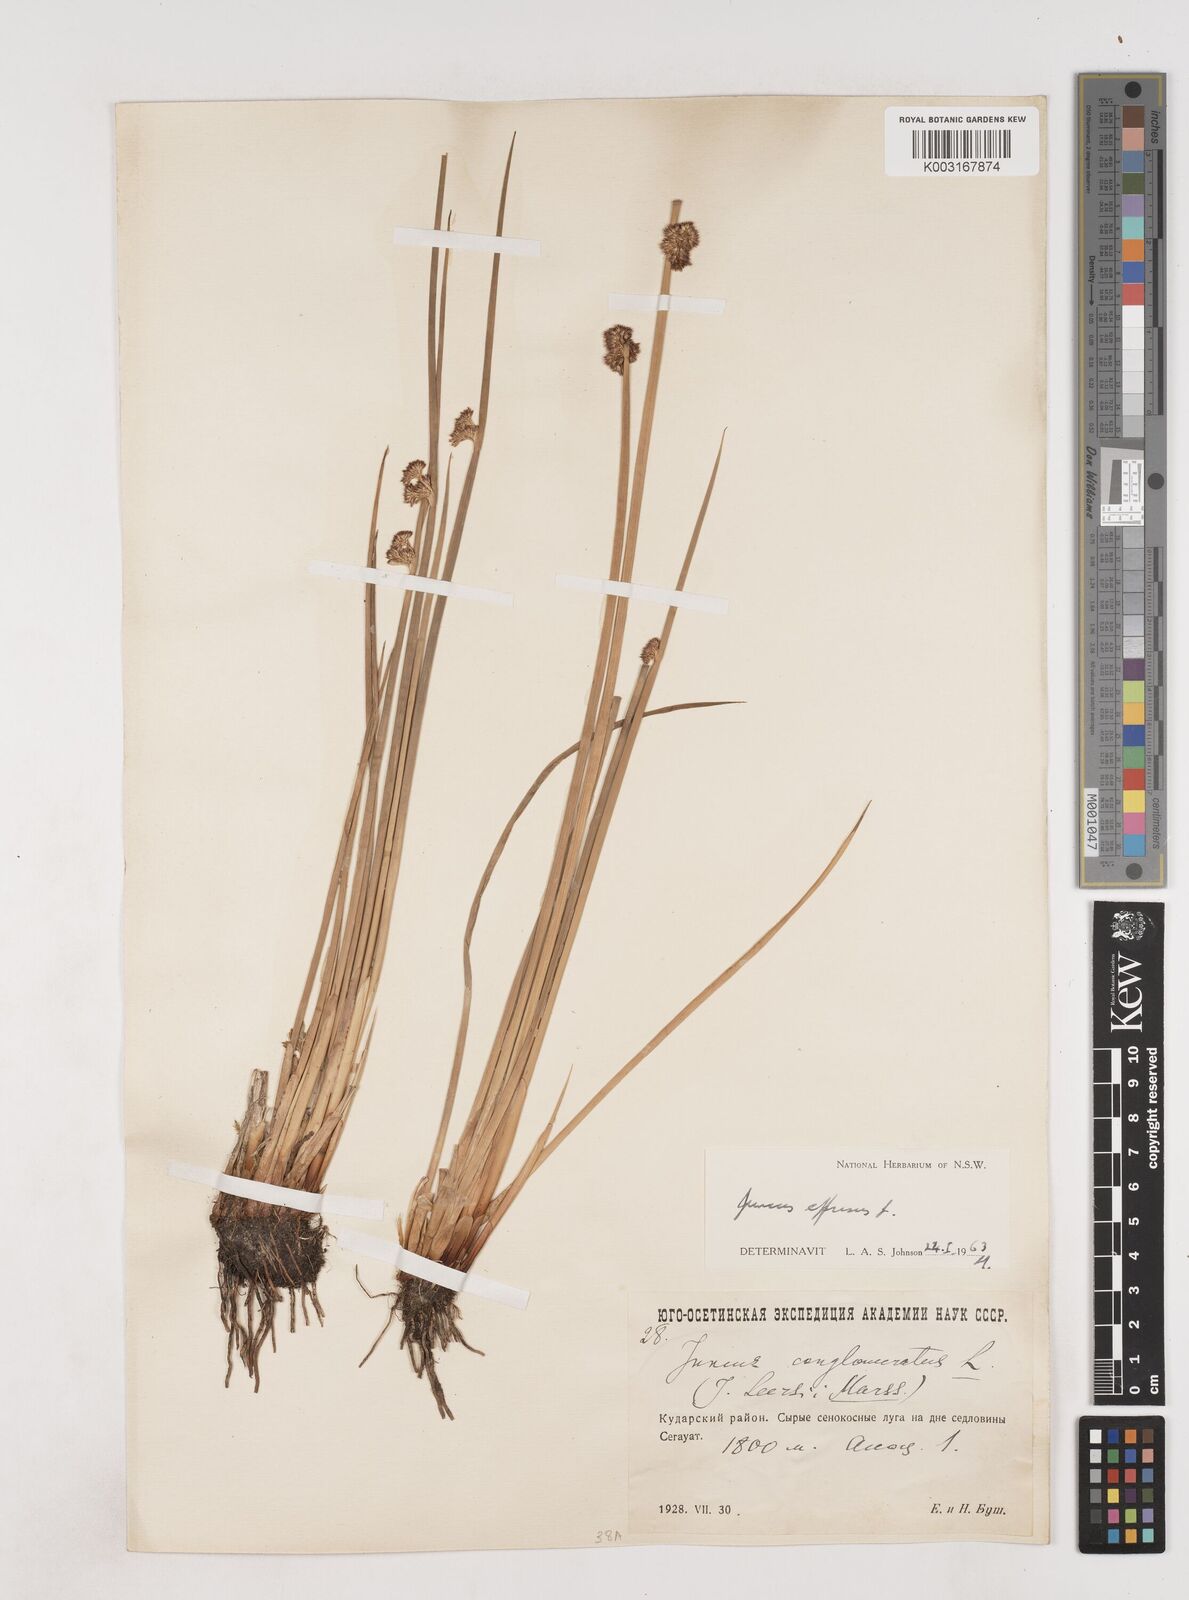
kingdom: Plantae
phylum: Tracheophyta
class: Liliopsida
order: Poales
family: Juncaceae
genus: Juncus
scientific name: Juncus effusus
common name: Soft rush
